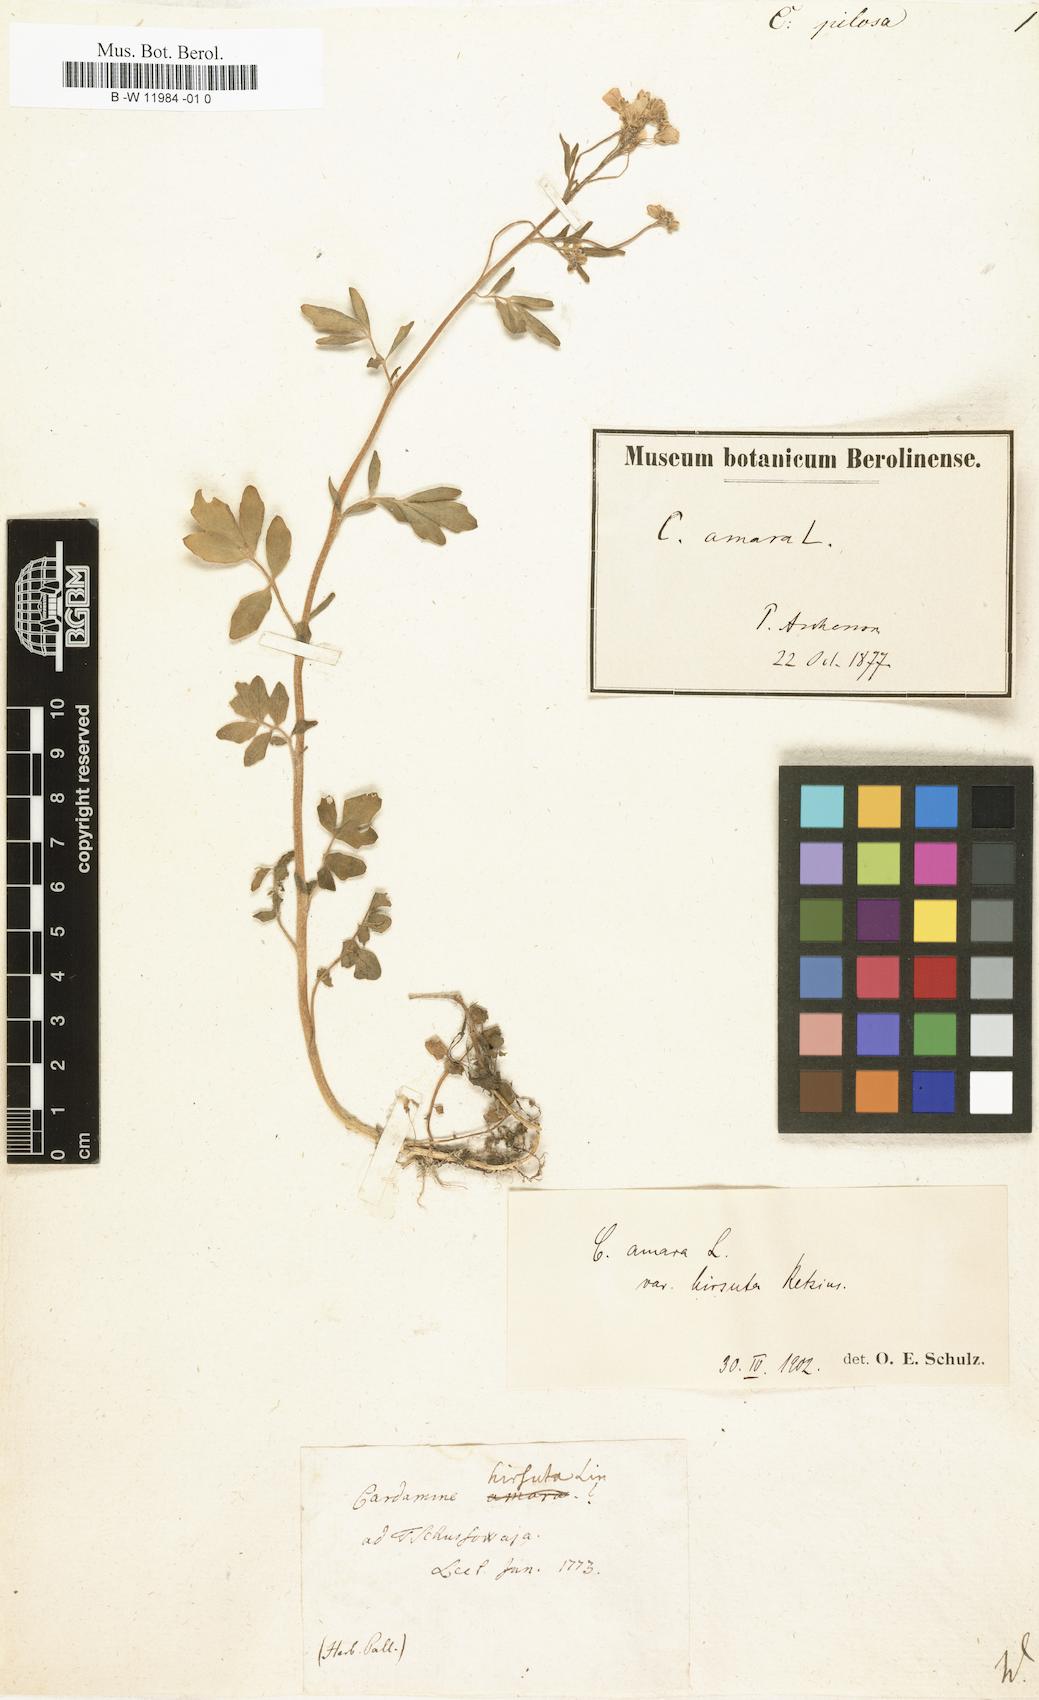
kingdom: Plantae
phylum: Tracheophyta
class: Magnoliopsida
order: Brassicales
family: Brassicaceae
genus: Cardamine
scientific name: Cardamine prorepens
